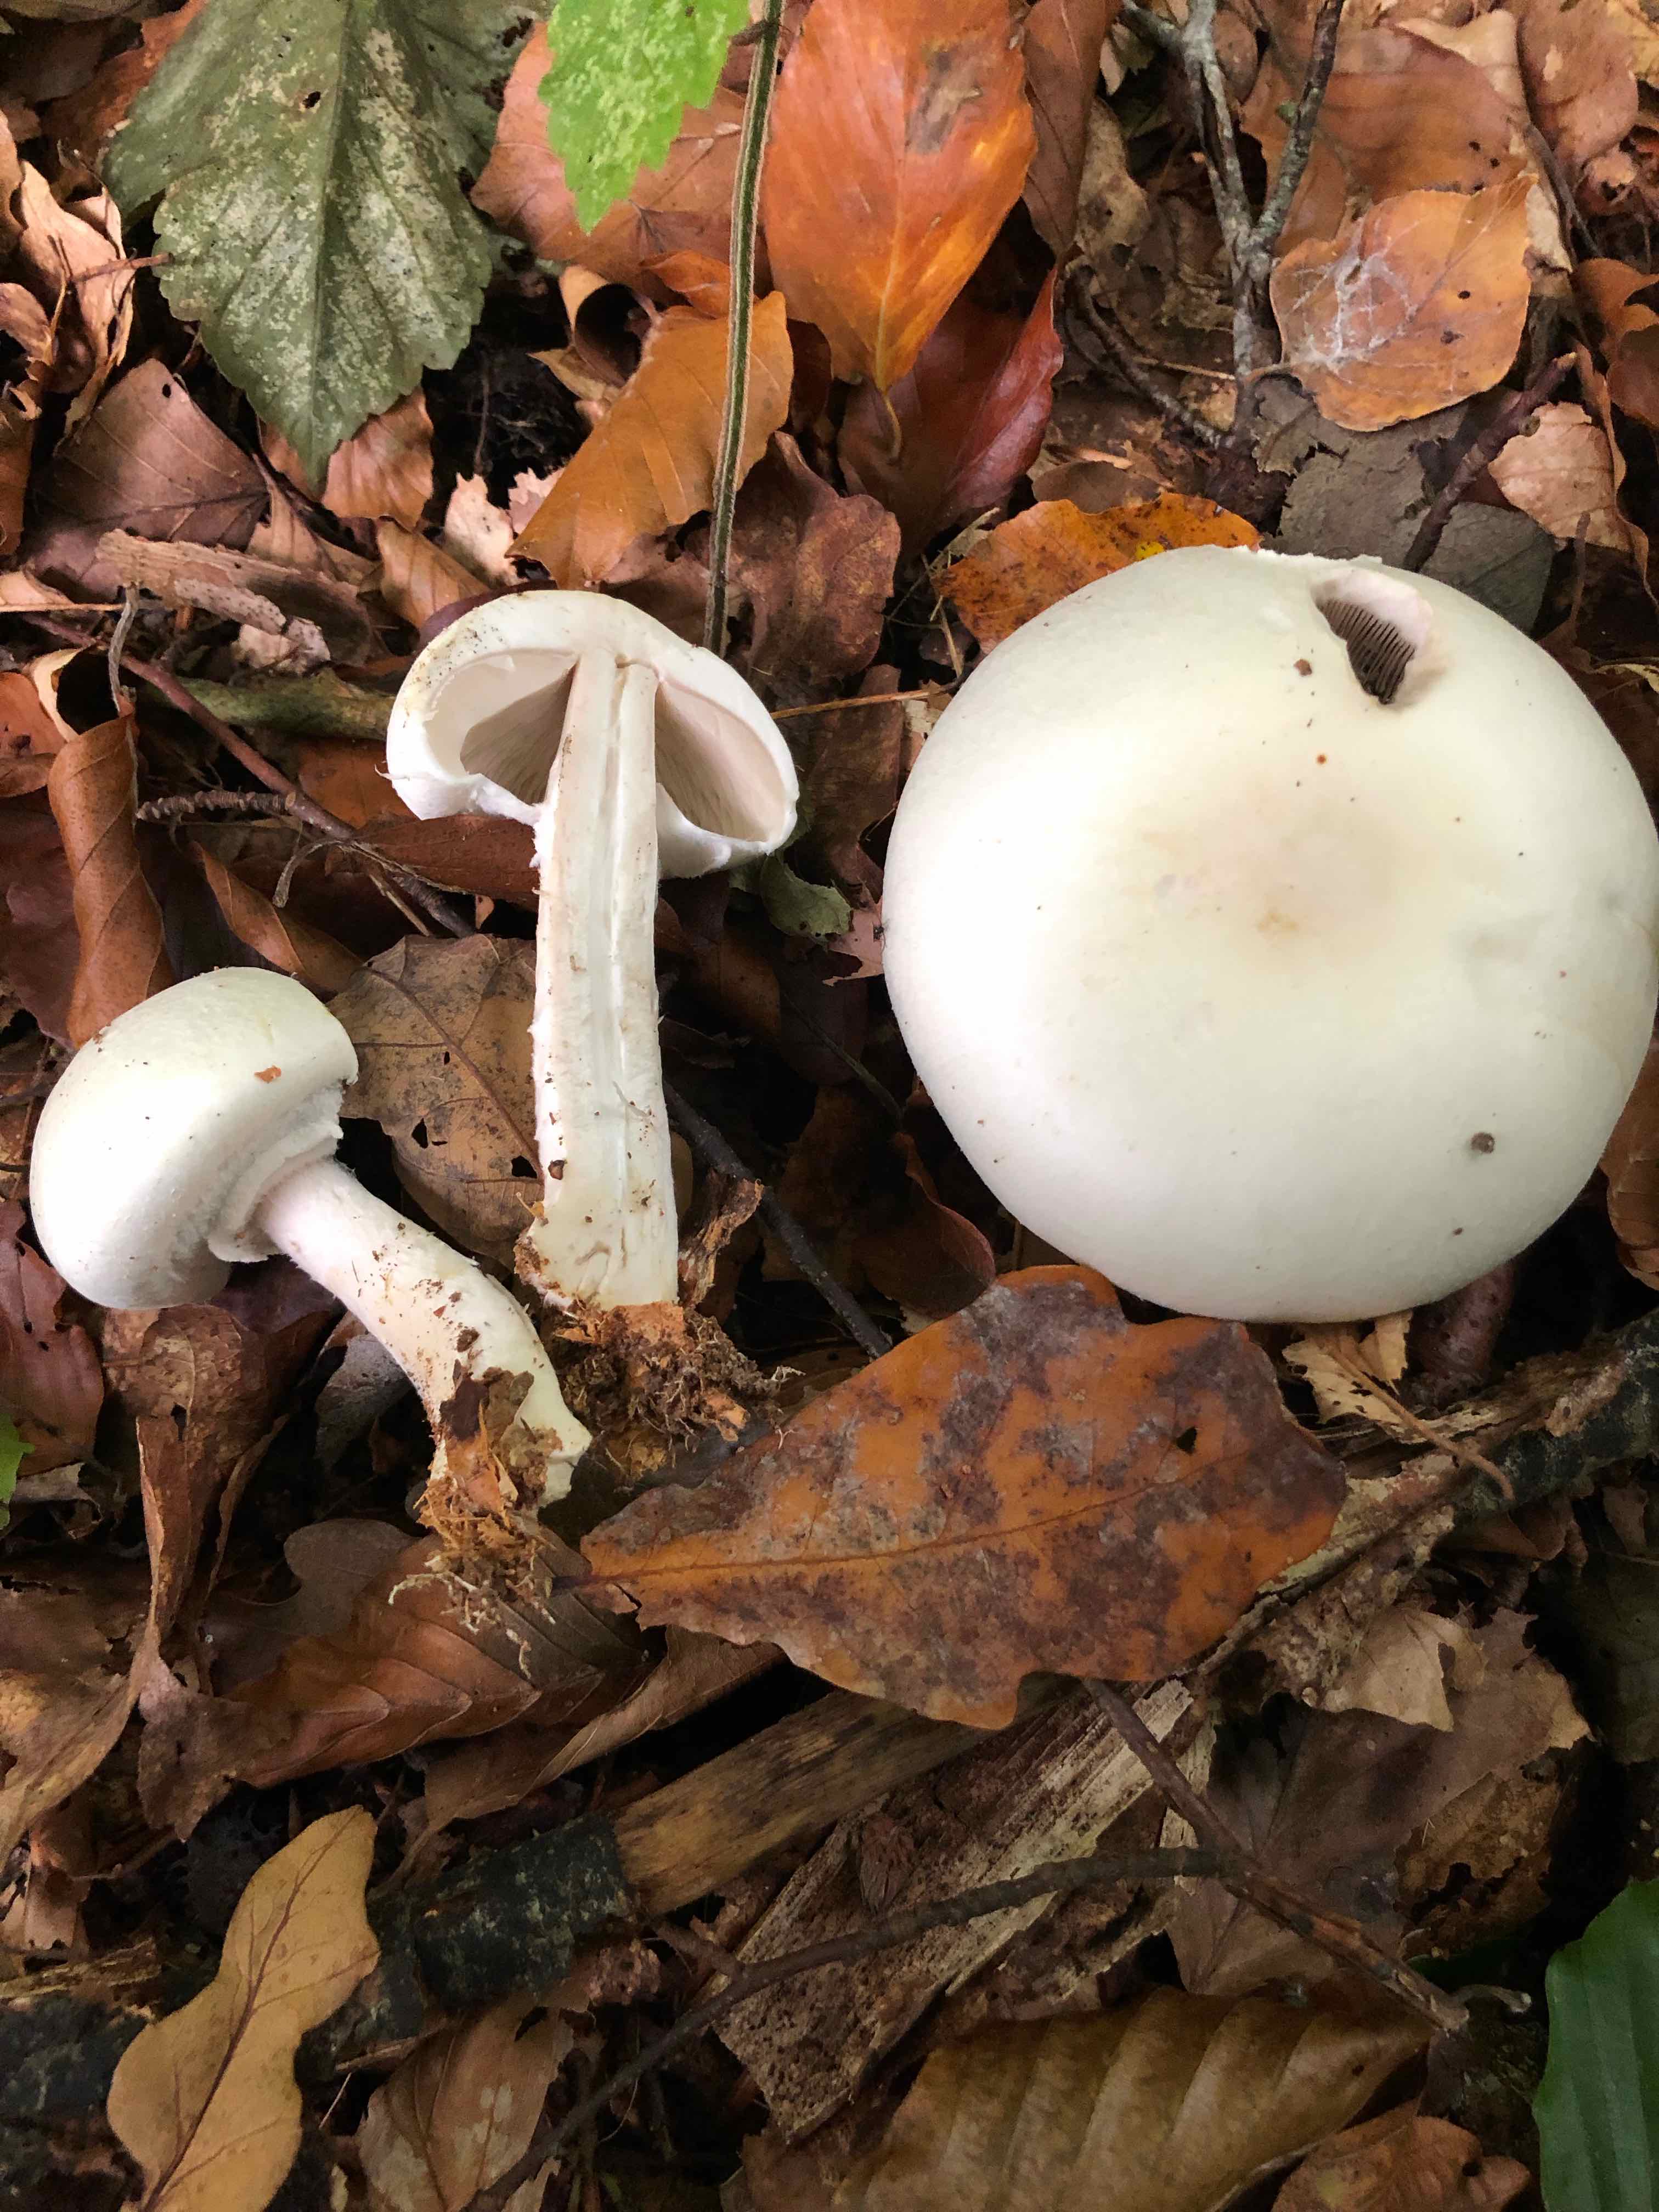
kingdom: Fungi
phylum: Basidiomycota
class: Agaricomycetes
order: Agaricales
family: Agaricaceae
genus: Agaricus
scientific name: Agaricus sylvicola
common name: gulhvid champignon
